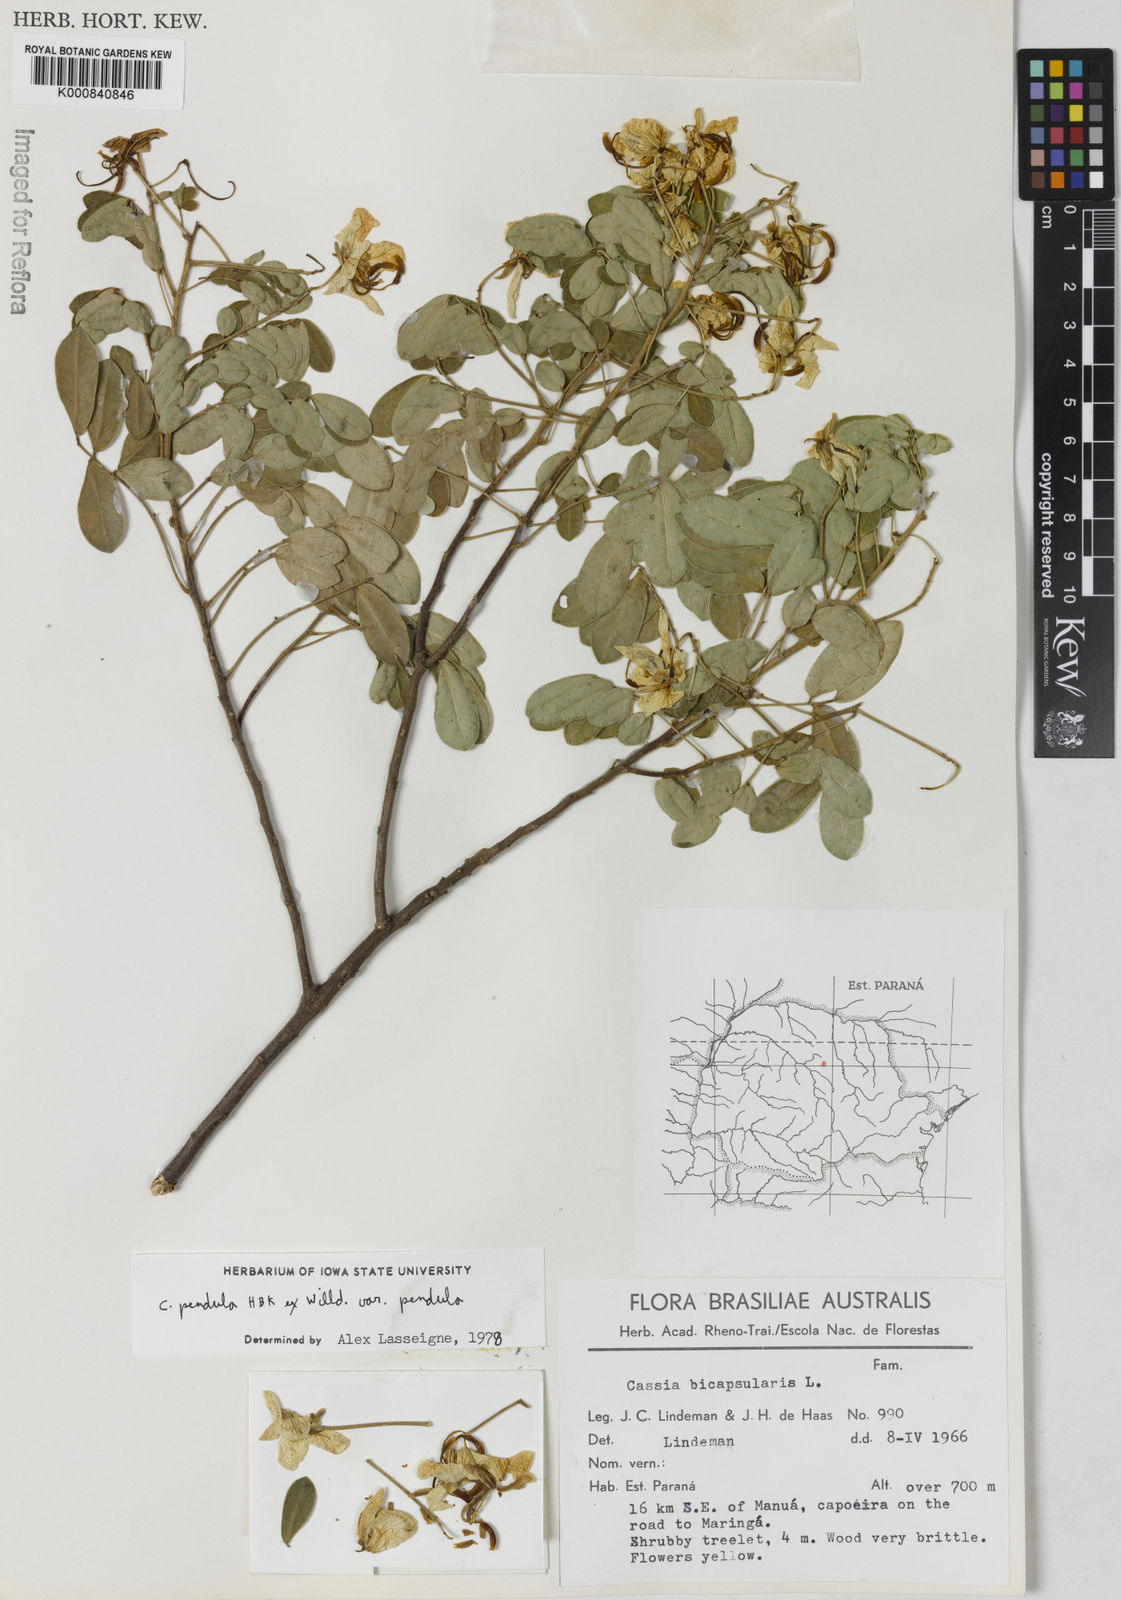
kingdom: Plantae
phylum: Tracheophyta
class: Magnoliopsida
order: Fabales
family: Fabaceae
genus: Senna
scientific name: Senna pendula
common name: Easter cassia
